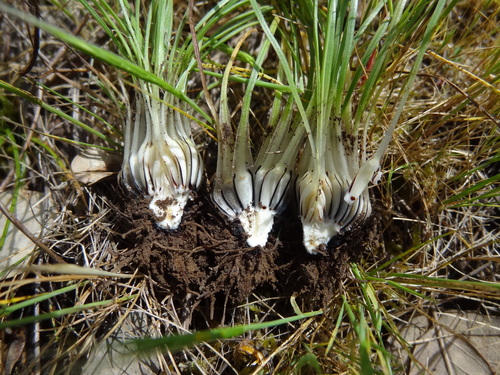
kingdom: Plantae
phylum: Tracheophyta
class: Lycopodiopsida
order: Isoetales
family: Isoetaceae
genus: Isoetes
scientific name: Isoetes histrix
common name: Land quillwort
